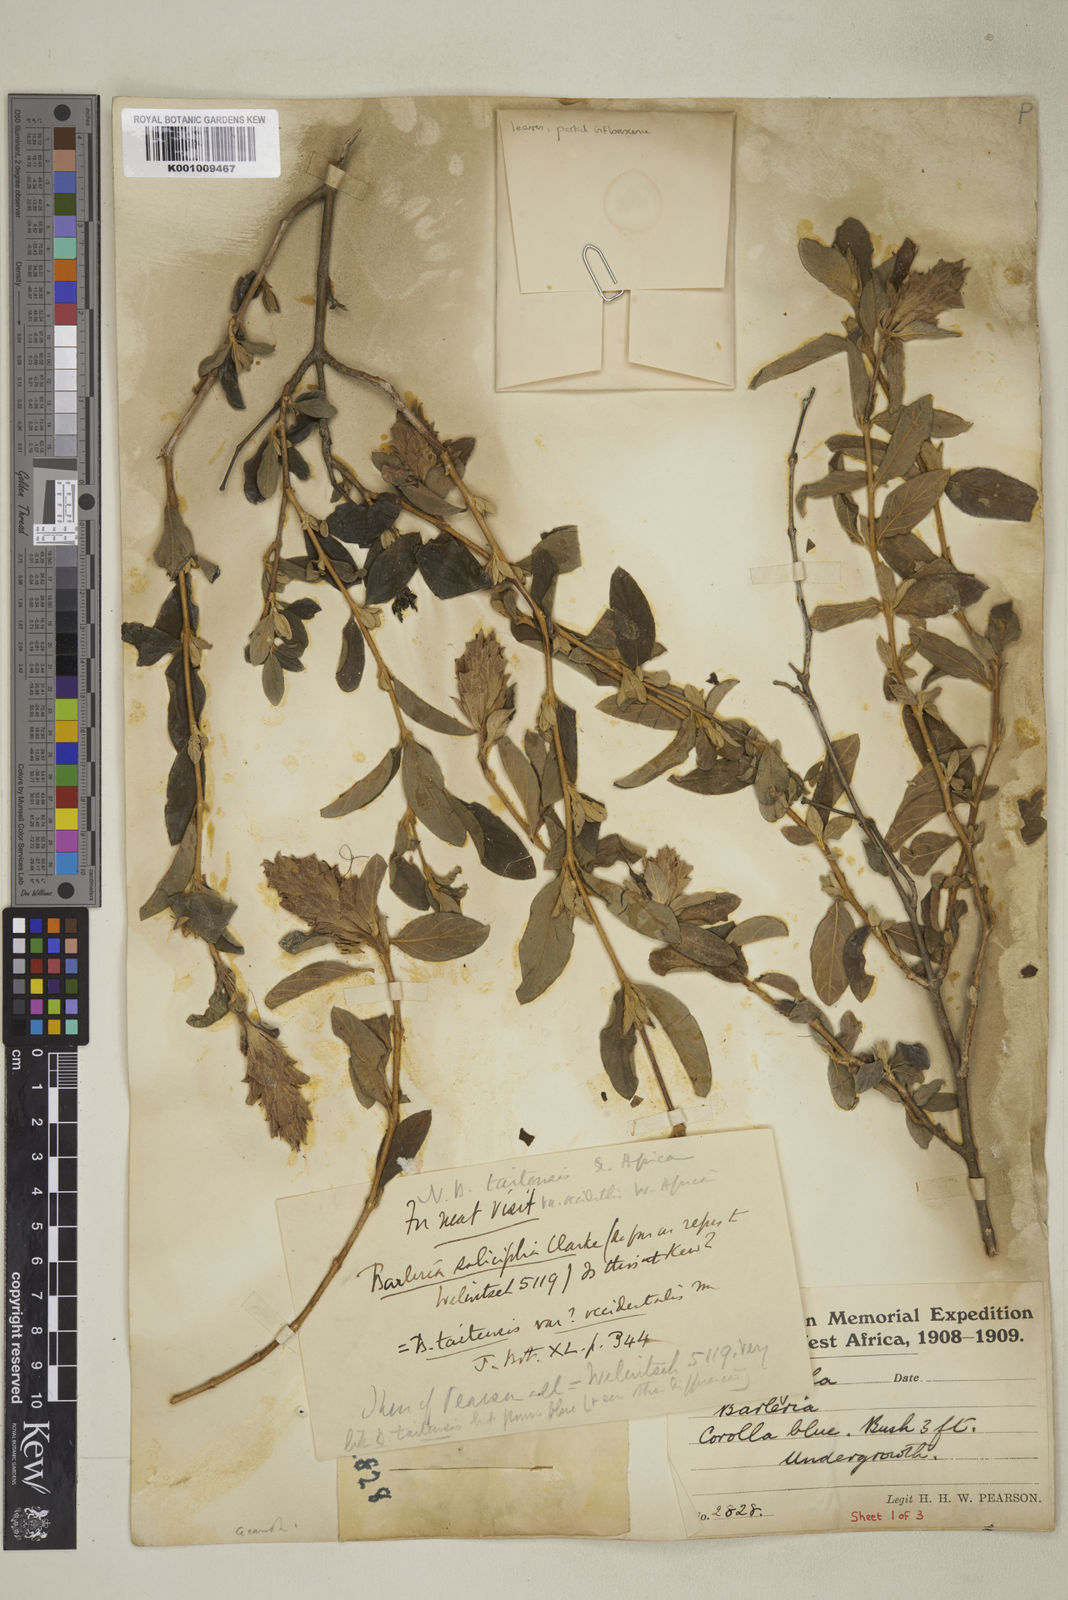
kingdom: Plantae
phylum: Tracheophyta
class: Magnoliopsida
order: Lamiales
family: Acanthaceae
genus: Barleria
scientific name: Barleria taitensis
